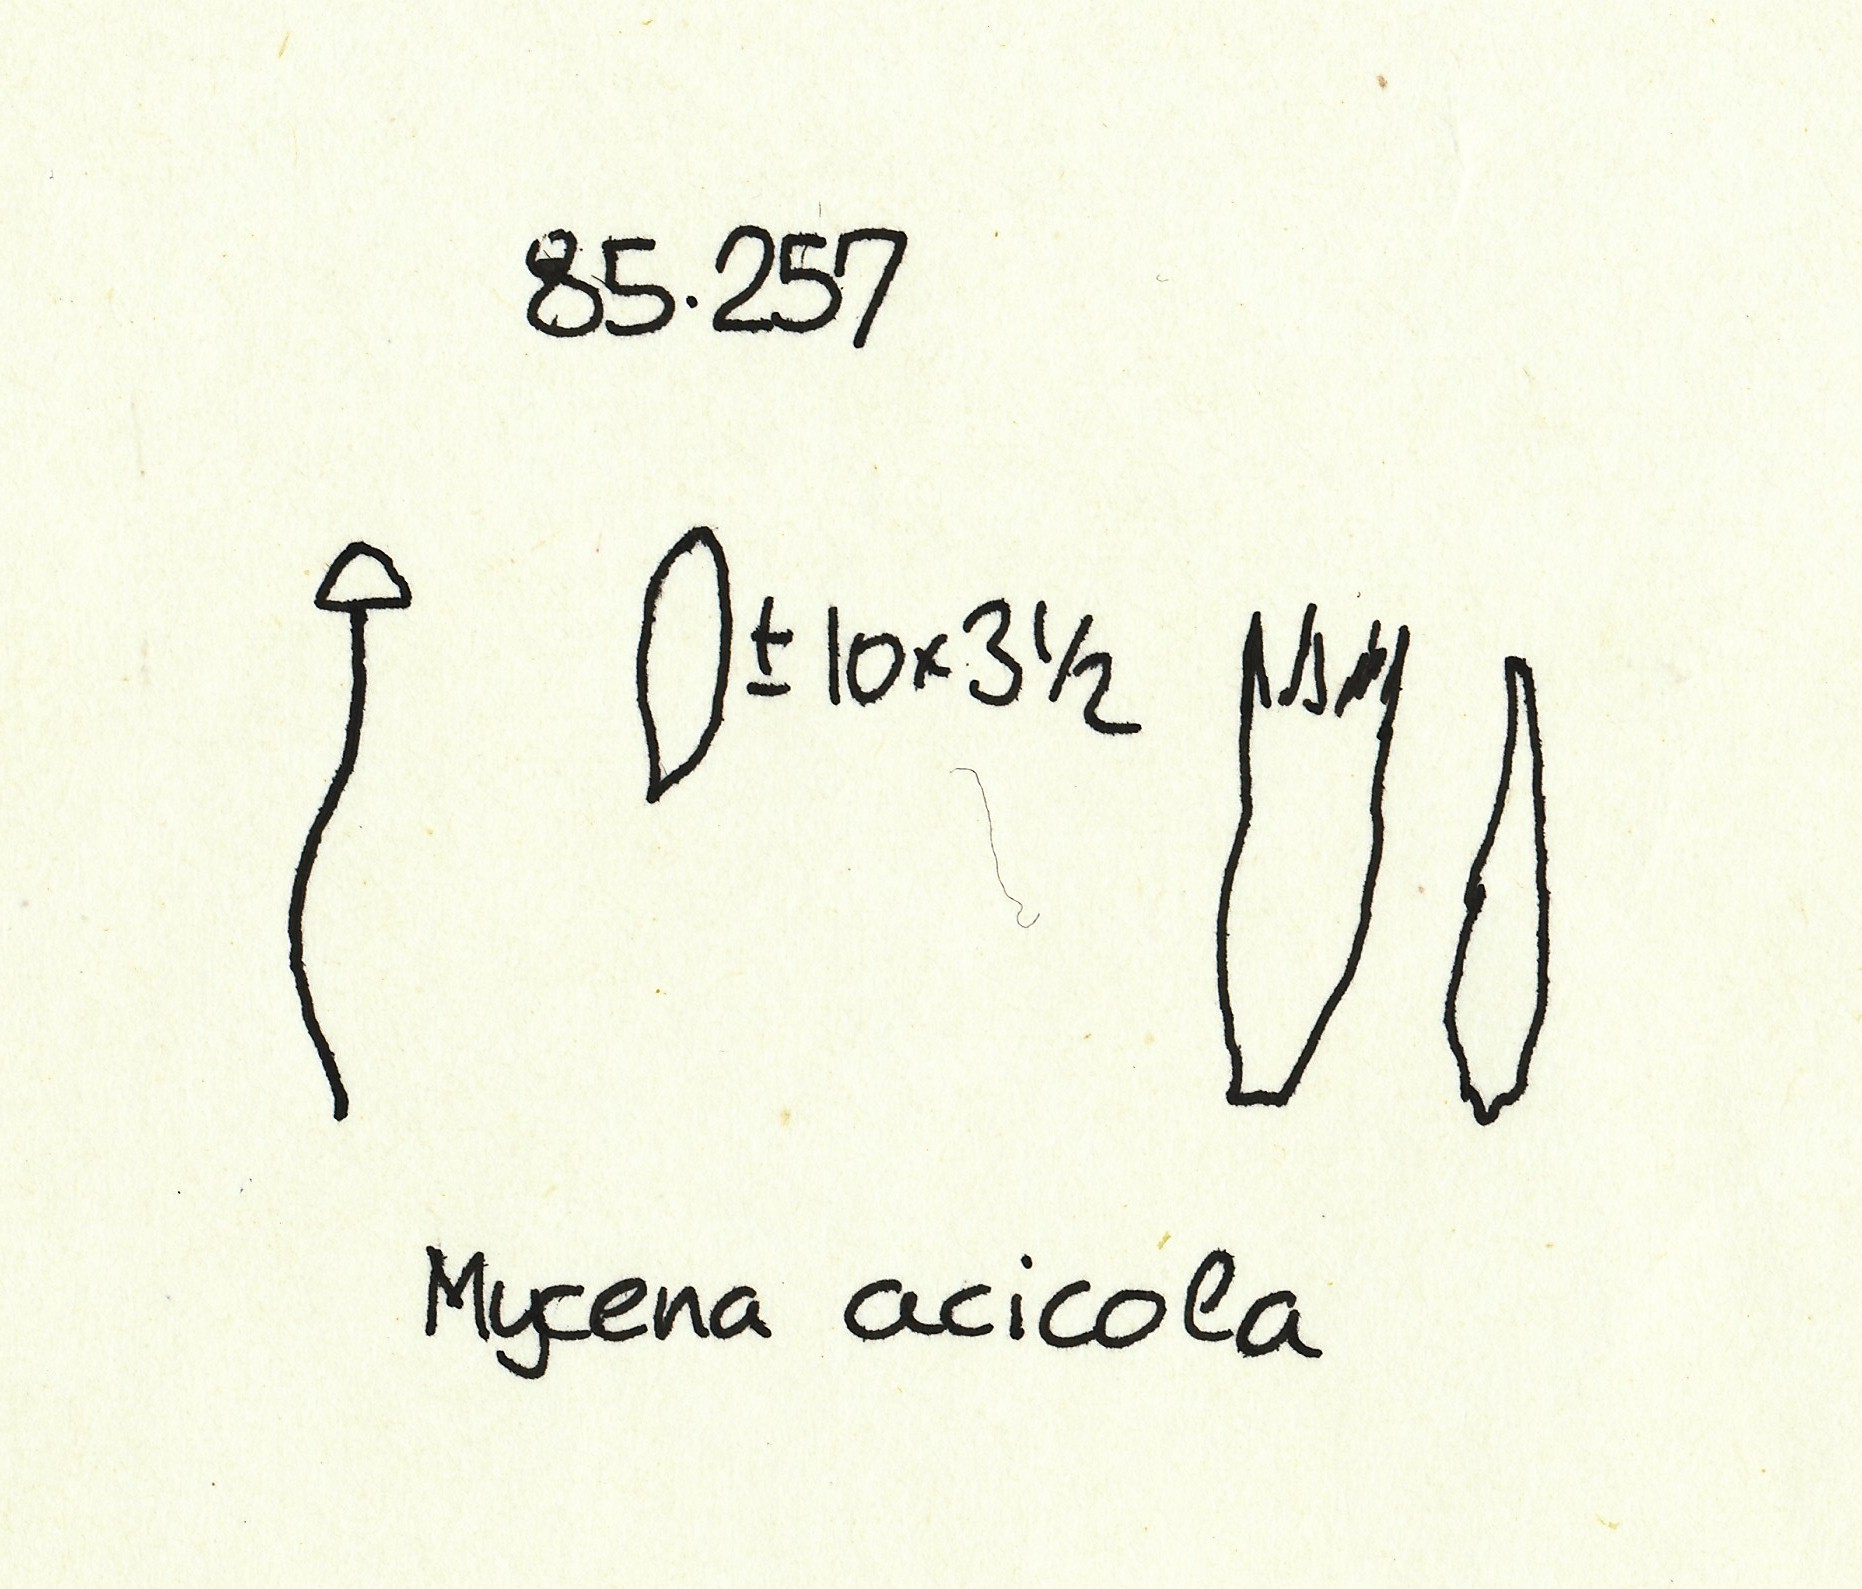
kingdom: Fungi
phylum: Basidiomycota
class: Agaricomycetes
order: Agaricales
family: Mycenaceae
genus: Mycena
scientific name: Mycena acicula
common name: orange huesvamp
